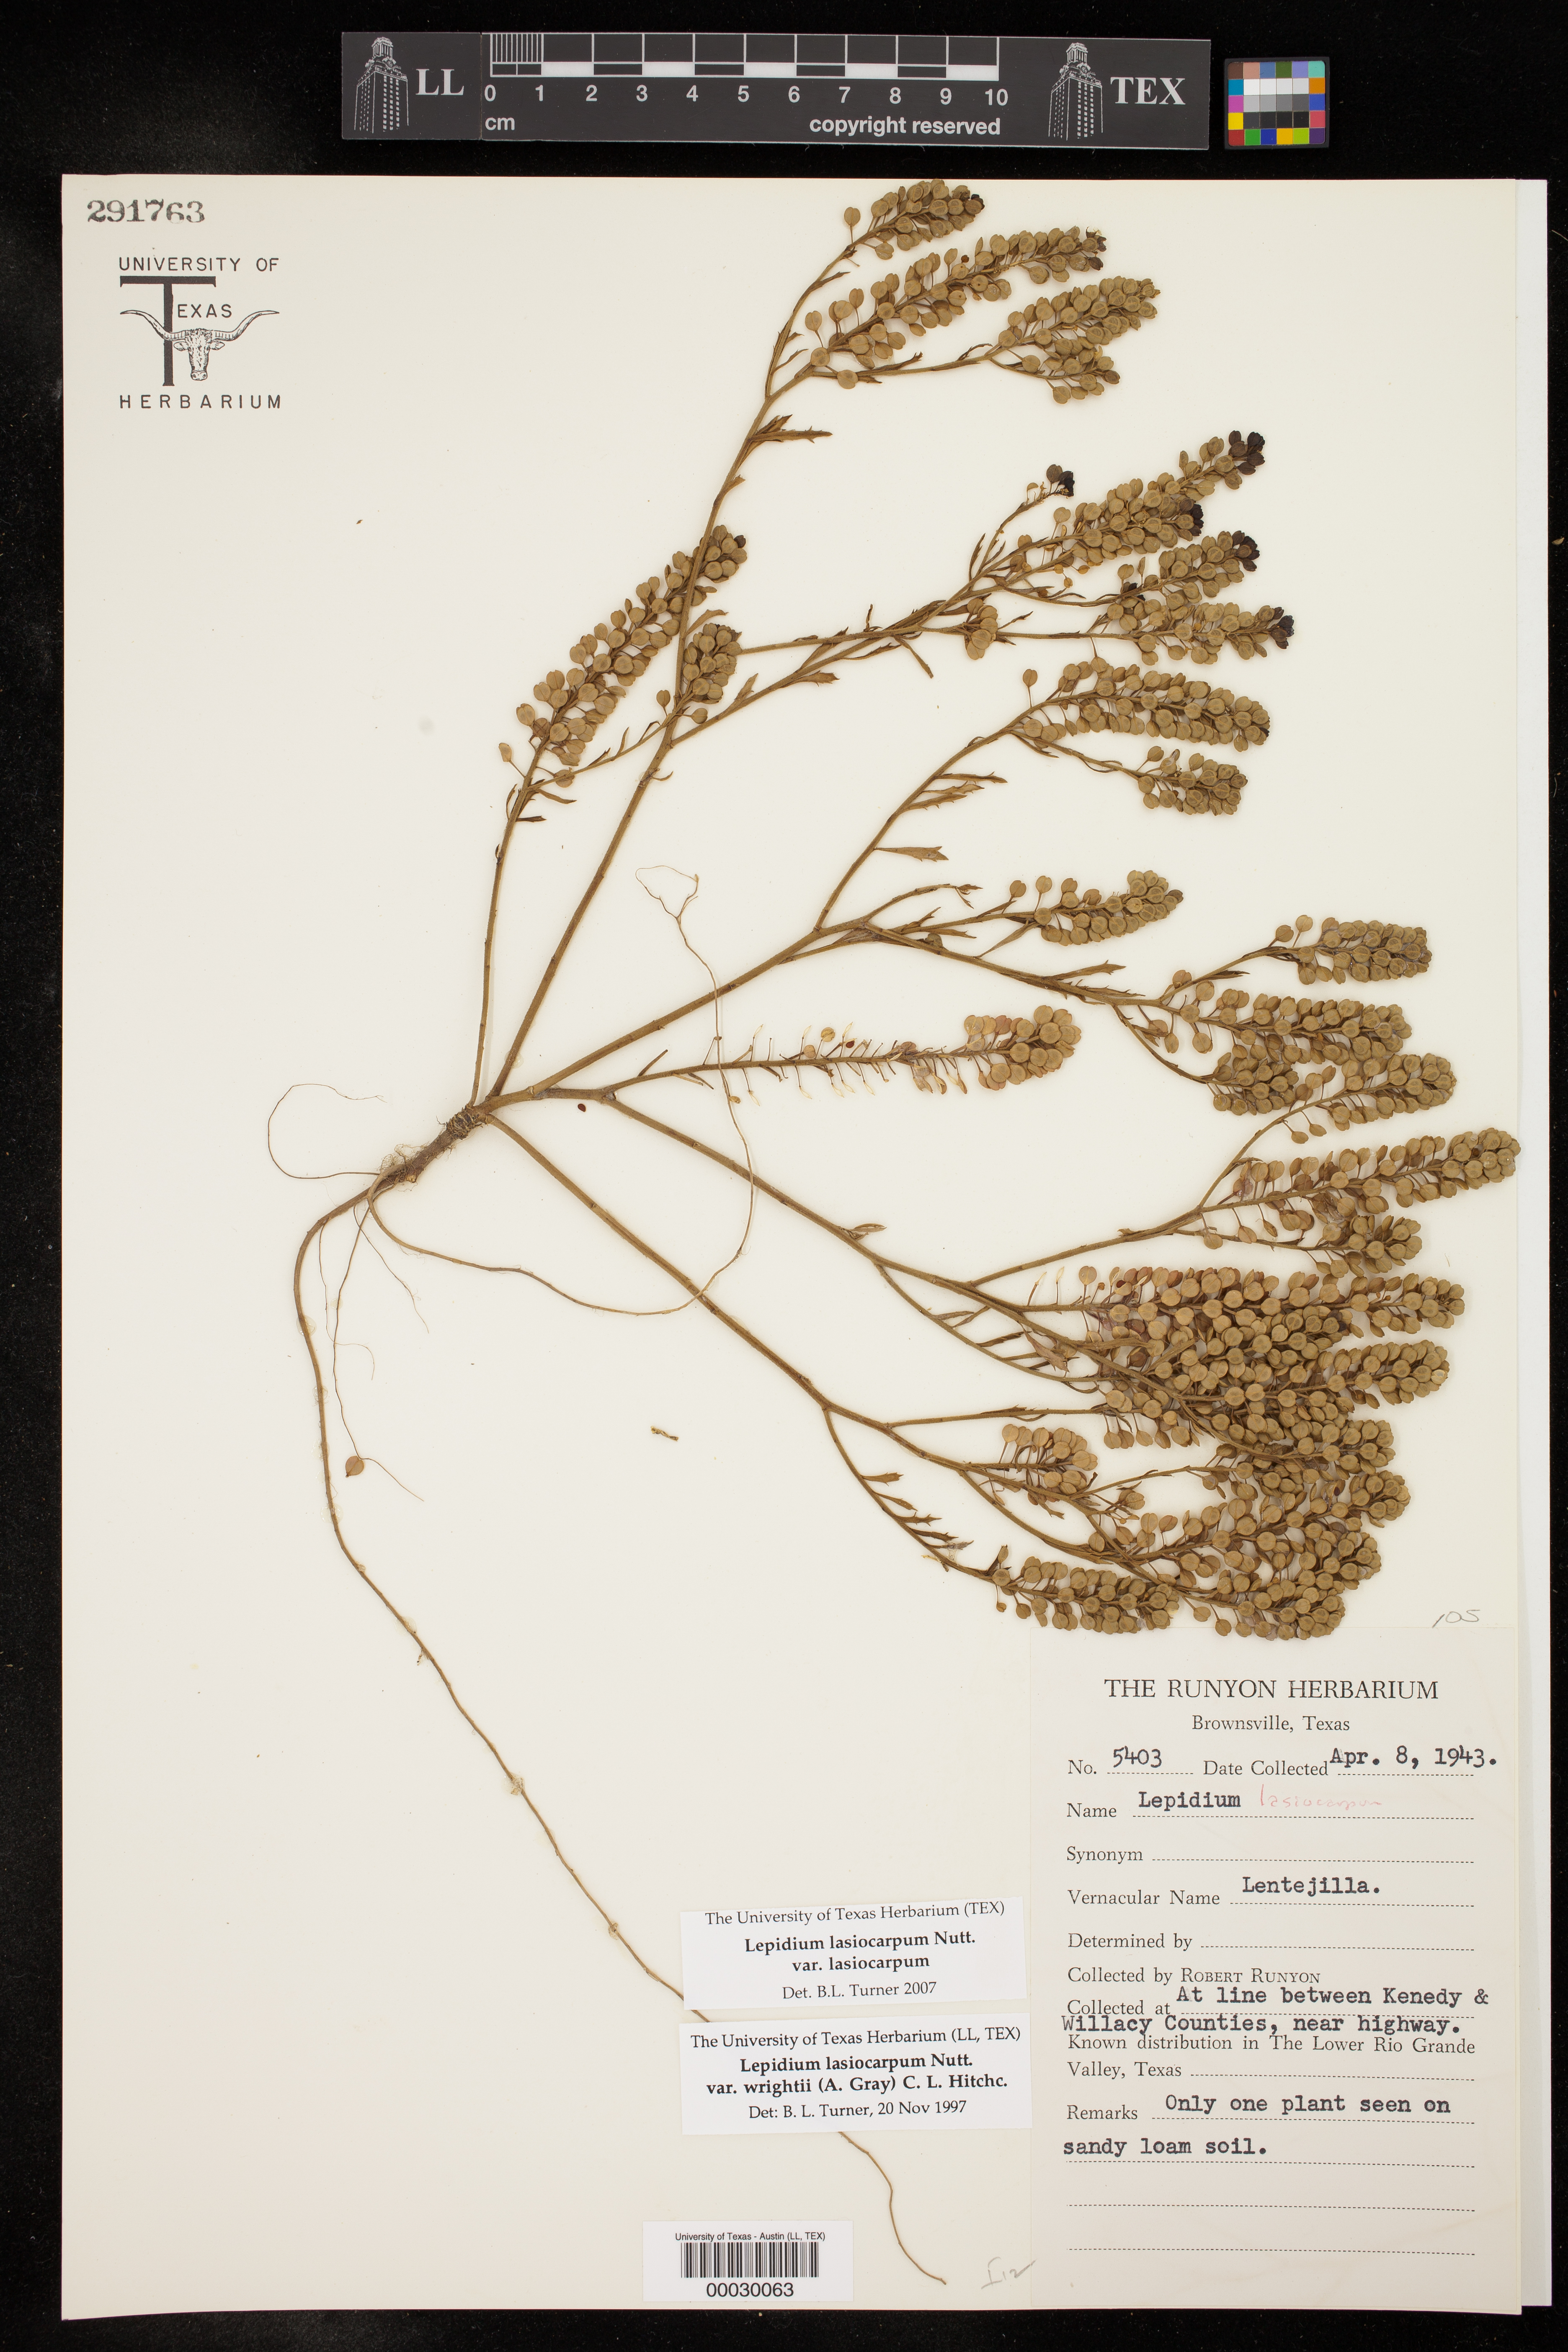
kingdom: Plantae
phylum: Tracheophyta
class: Magnoliopsida
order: Brassicales
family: Brassicaceae
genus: Lepidium
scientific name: Lepidium lasiocarpum
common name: Hairy-pod pepperwort
